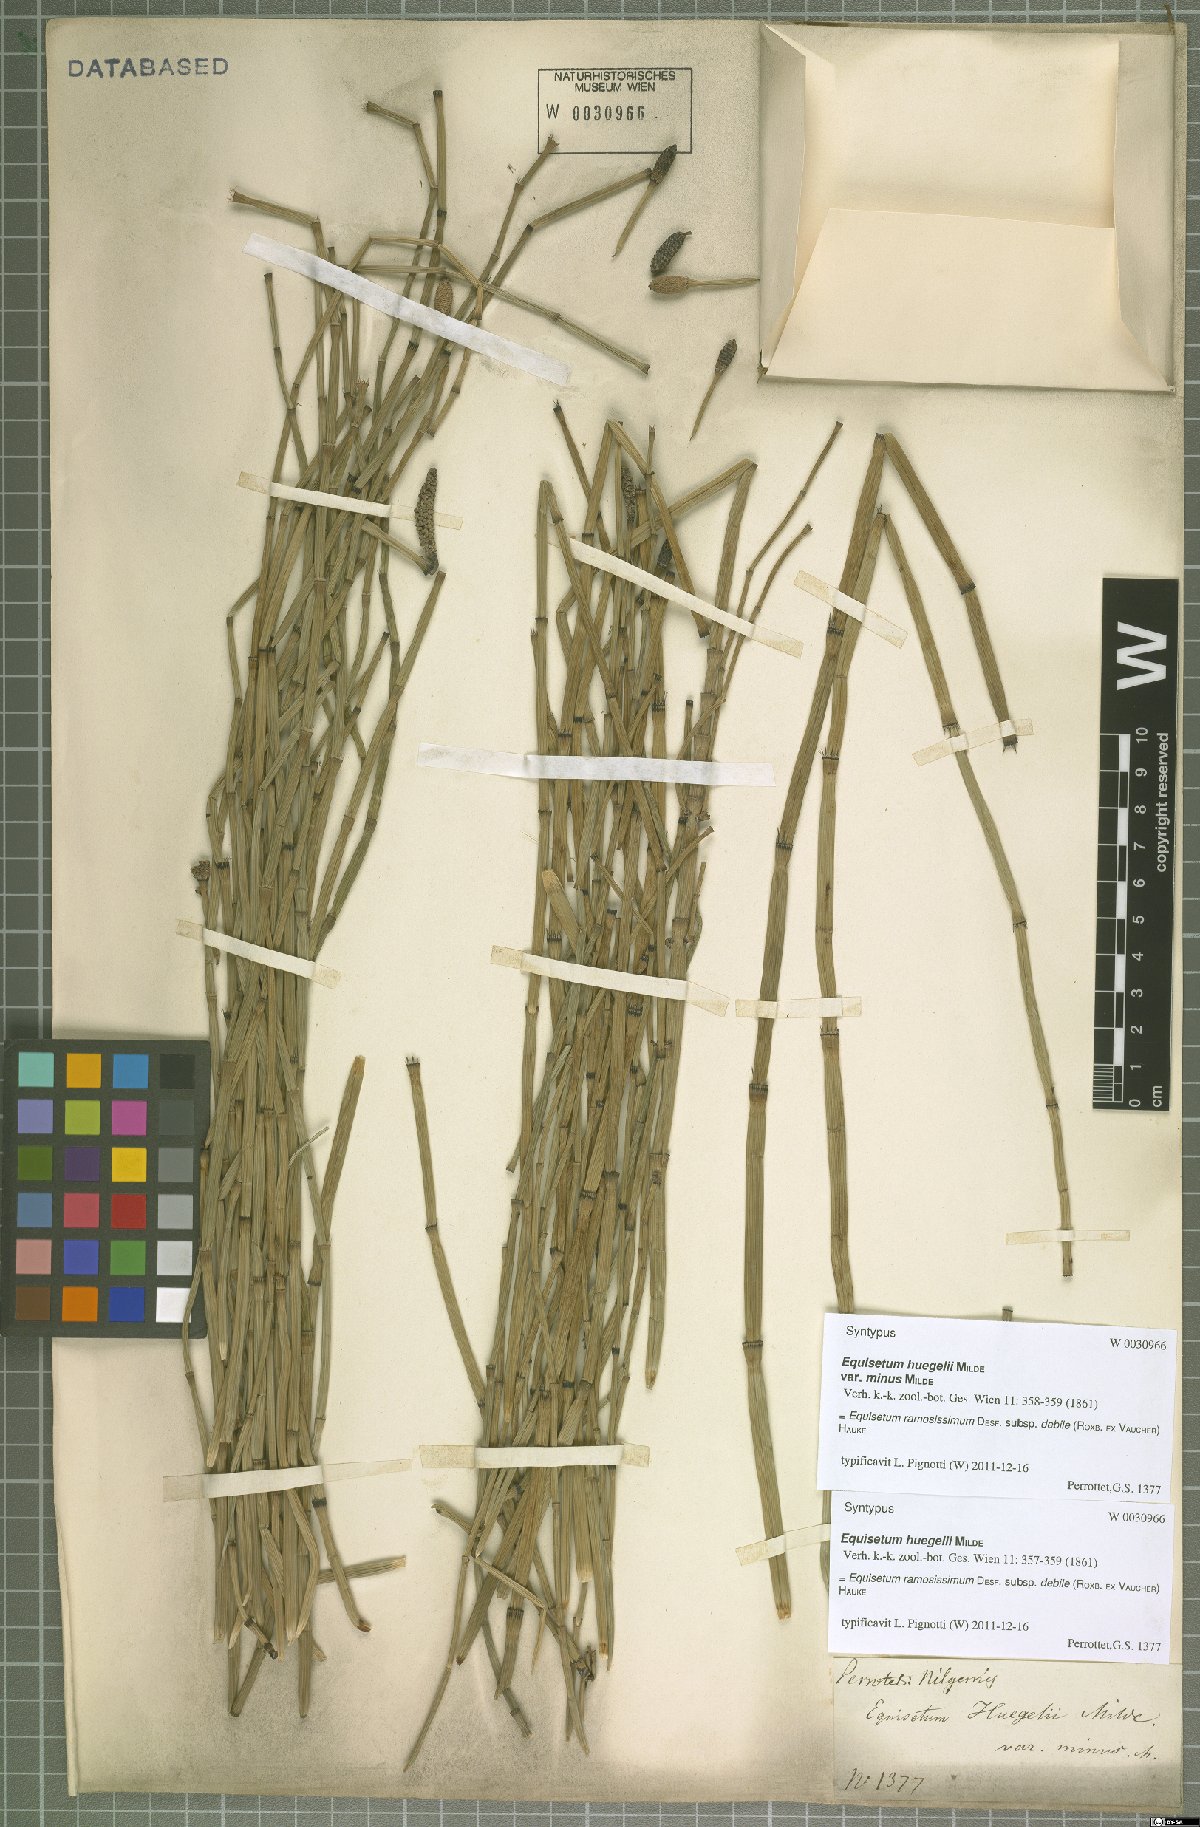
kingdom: Plantae
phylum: Tracheophyta
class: Polypodiopsida
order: Equisetales
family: Equisetaceae
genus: Equisetum
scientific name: Equisetum ramosissimum
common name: Branched horsetail
